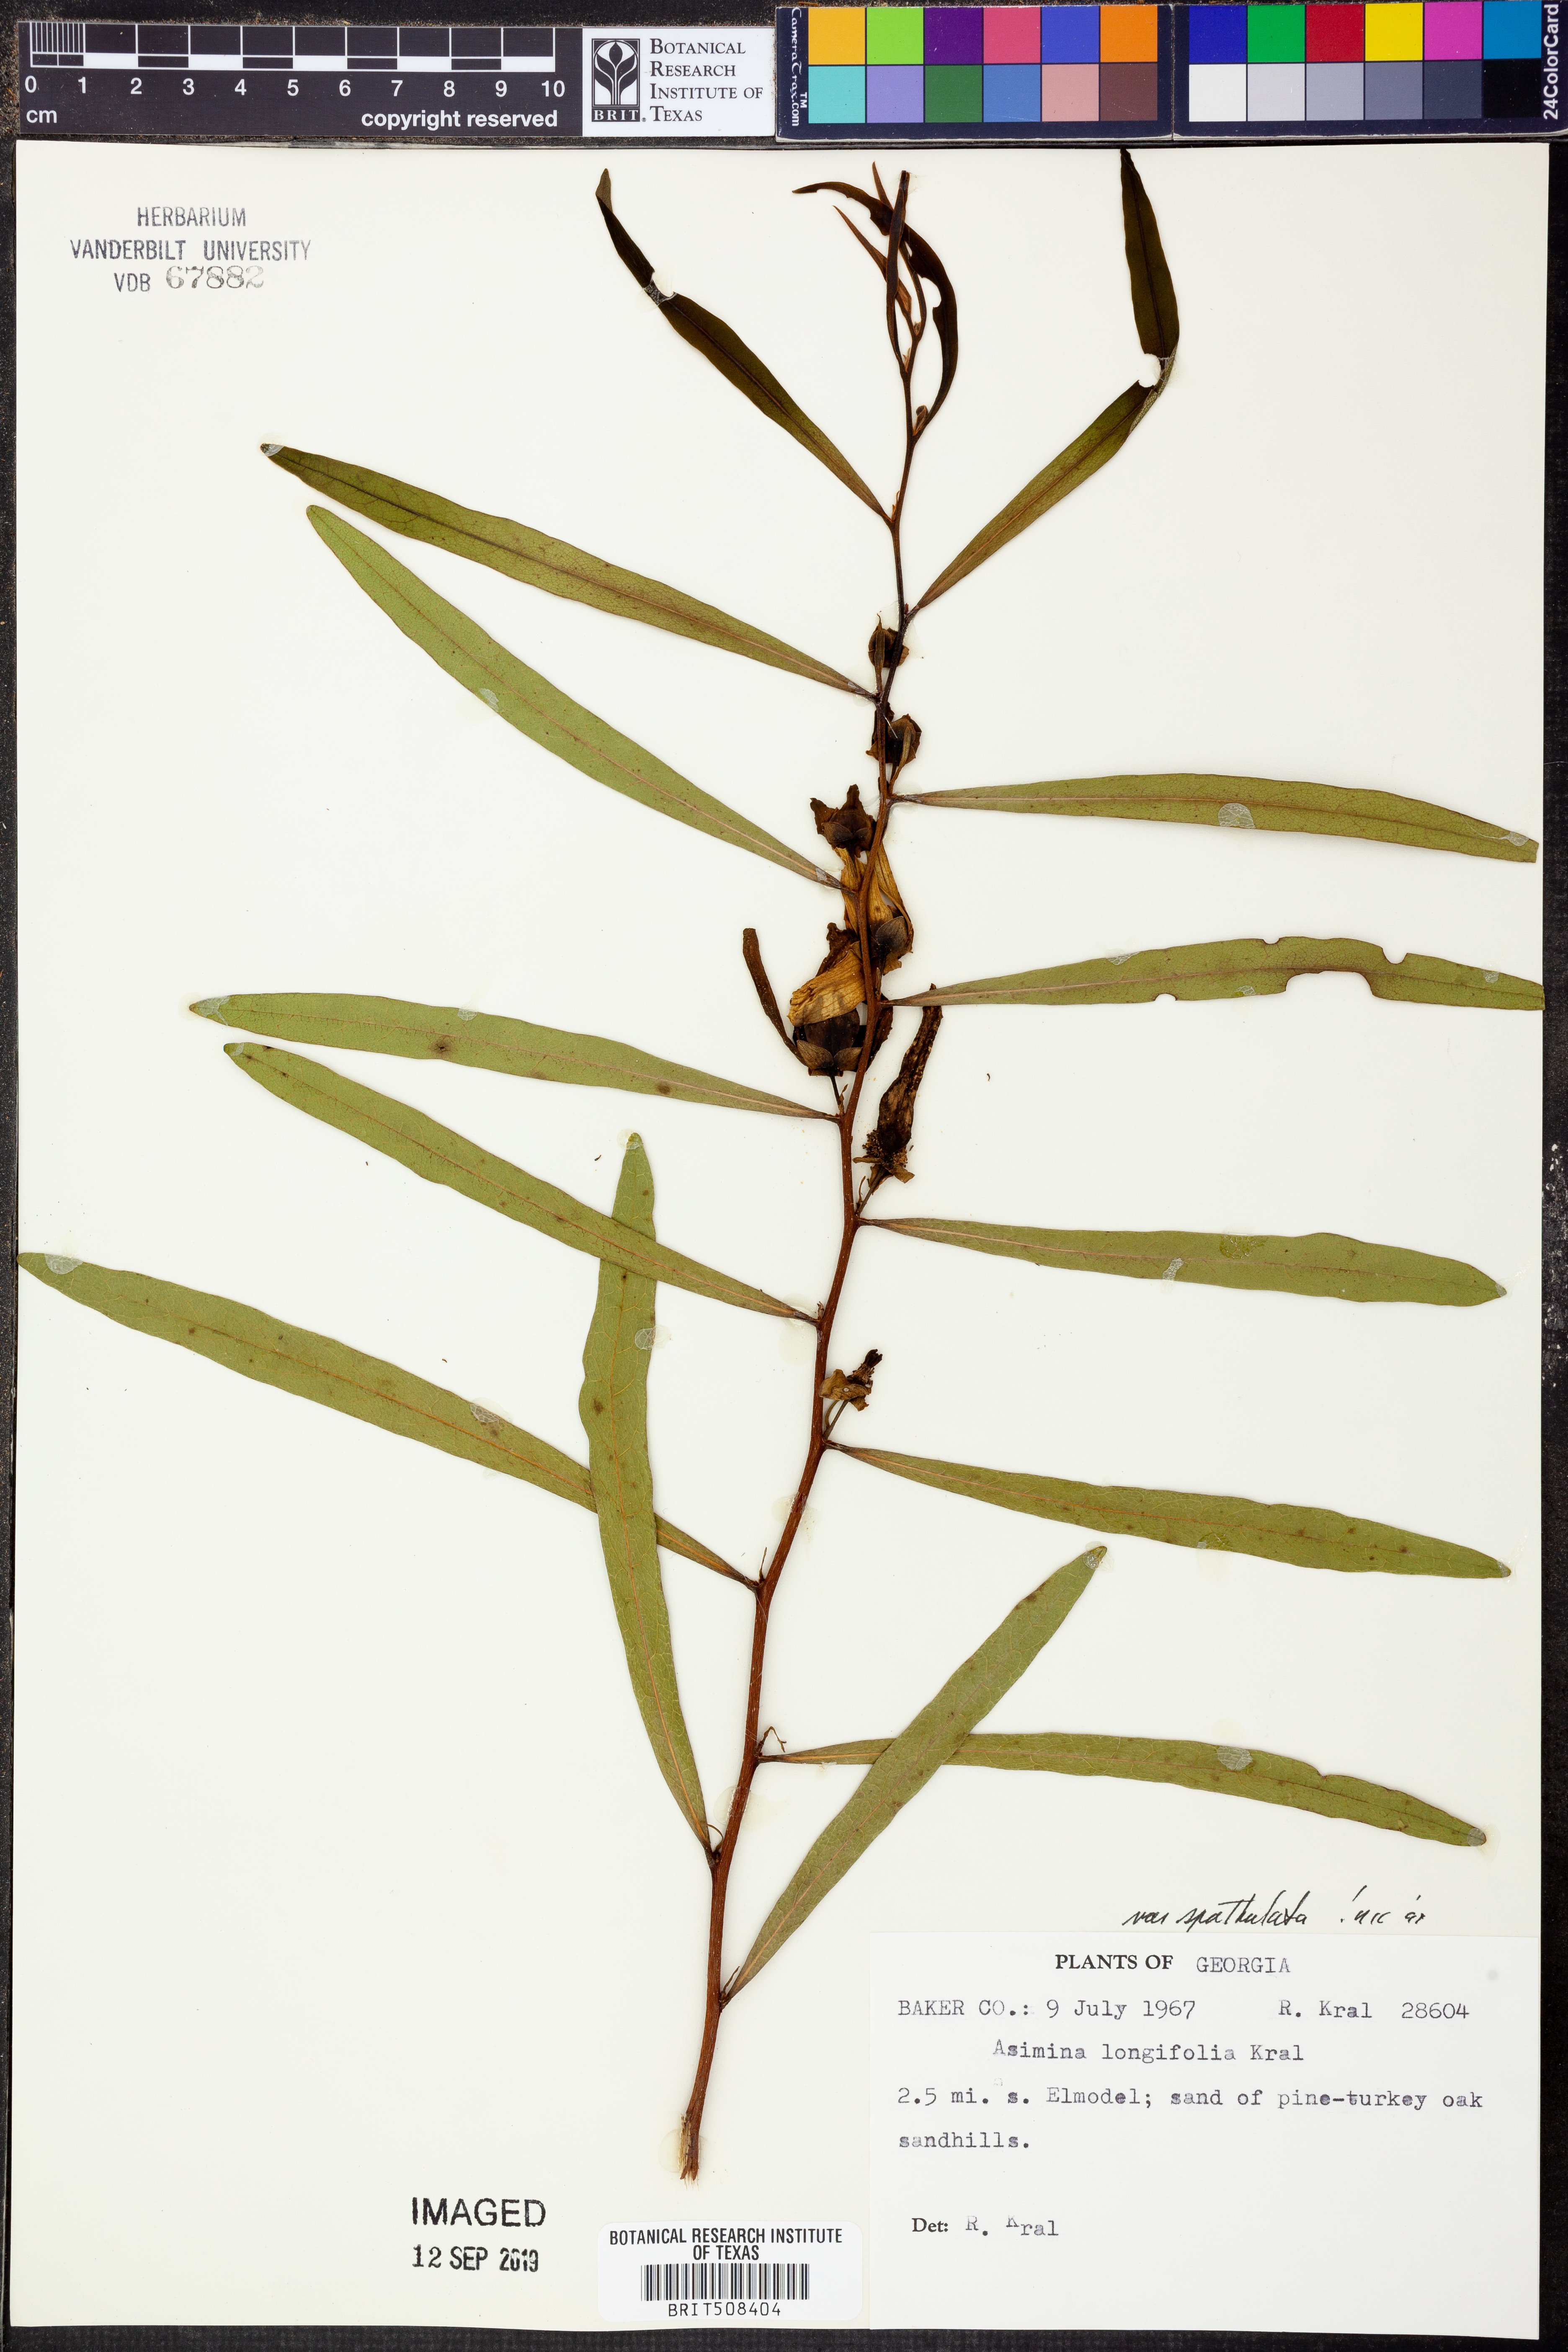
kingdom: Plantae
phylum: Tracheophyta
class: Magnoliopsida
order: Magnoliales
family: Annonaceae
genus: Asimina
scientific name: Asimina longifolia
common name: Polecatbush
